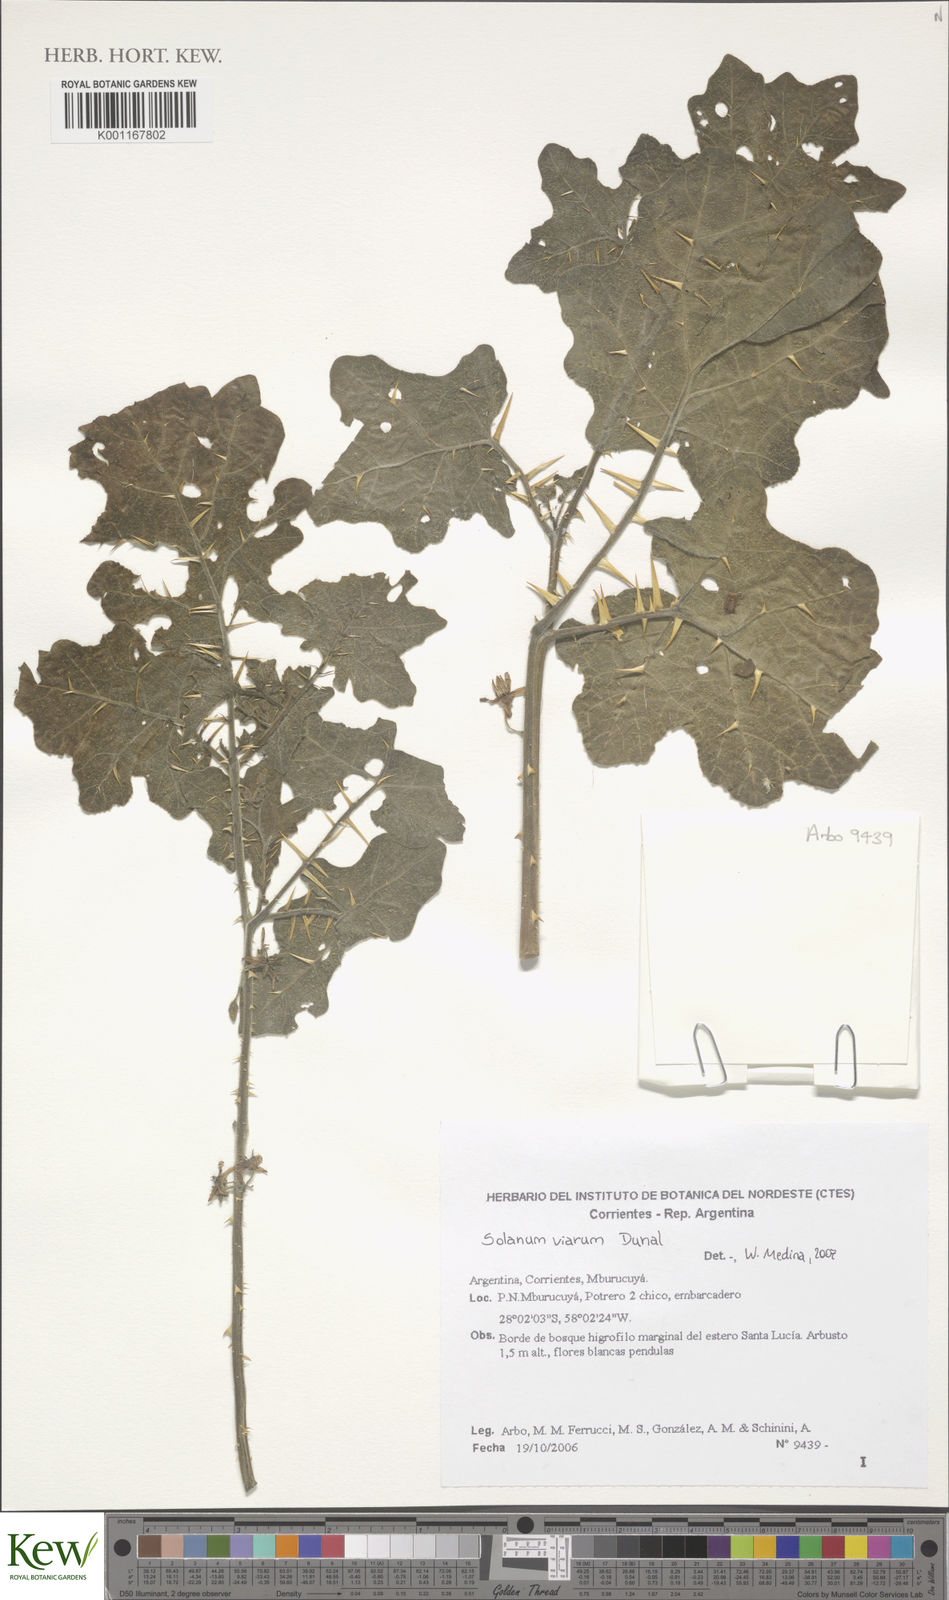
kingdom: Plantae
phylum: Tracheophyta
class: Magnoliopsida
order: Solanales
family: Solanaceae
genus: Solanum
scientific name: Solanum viarum
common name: Tropical soda apple
